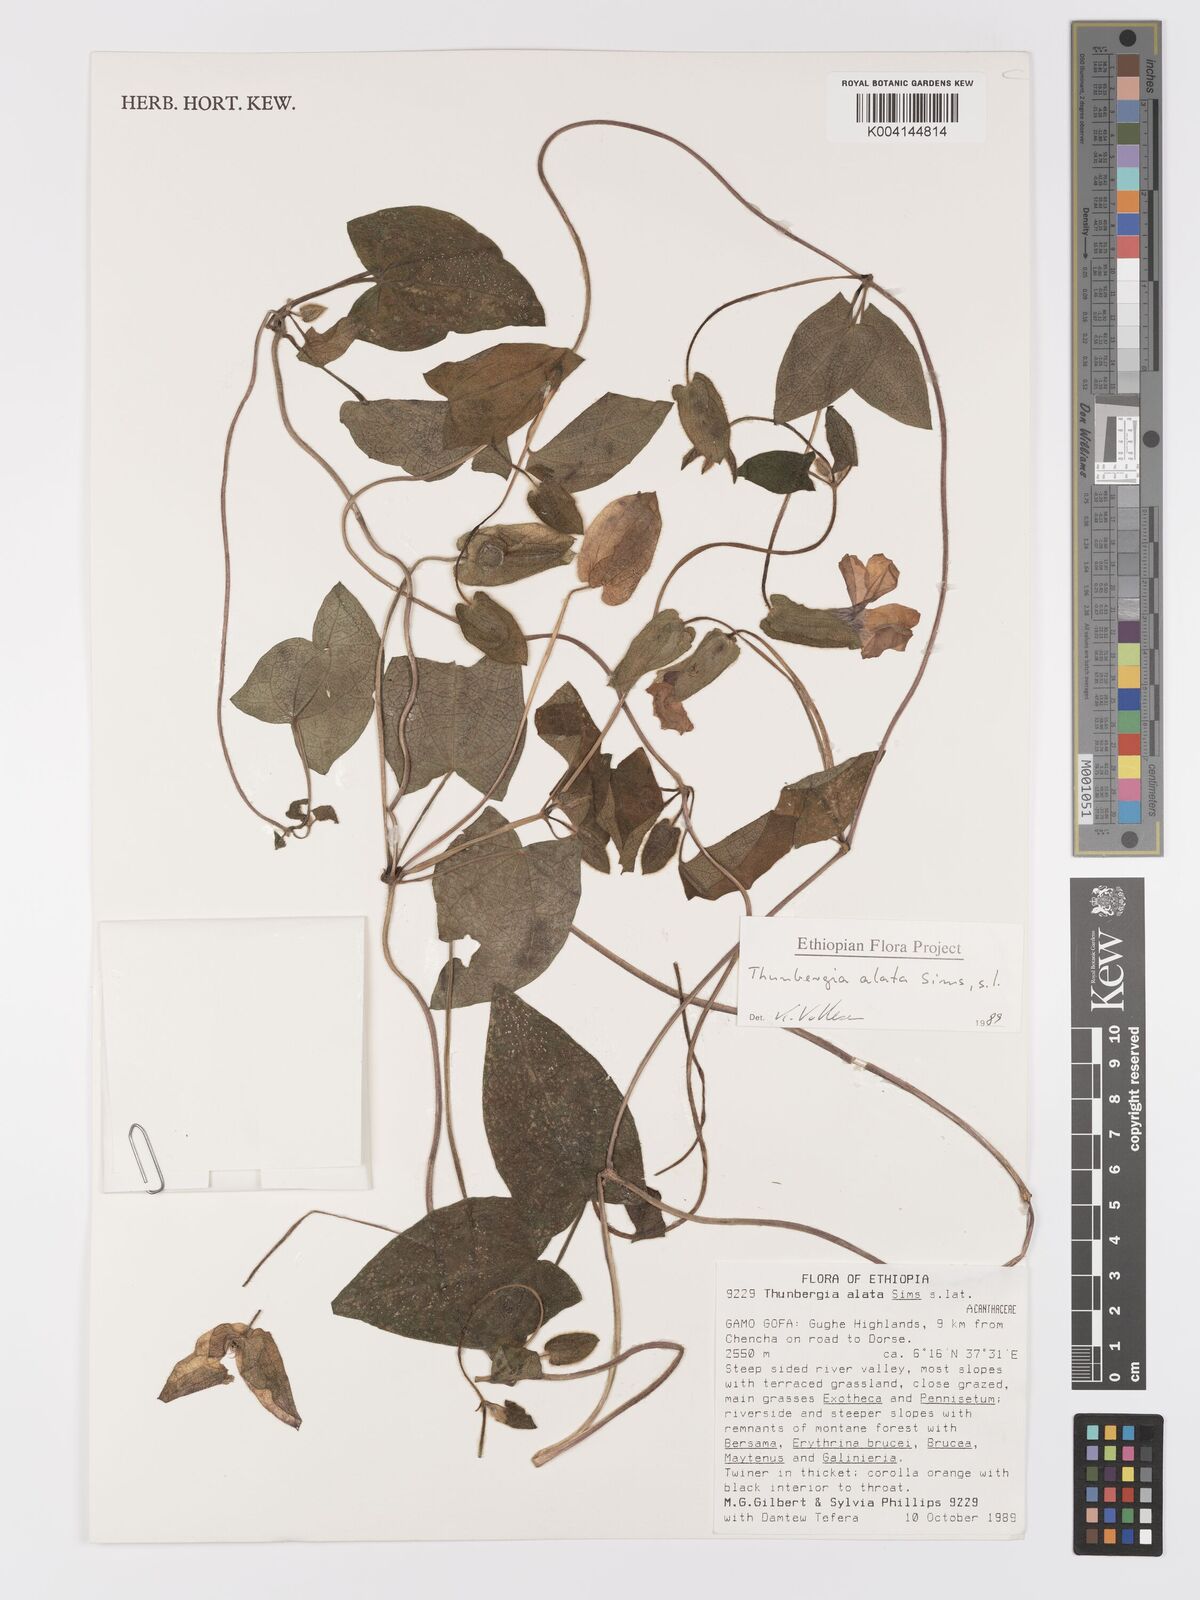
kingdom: Plantae
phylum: Tracheophyta
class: Magnoliopsida
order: Lamiales
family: Acanthaceae
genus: Thunbergia
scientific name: Thunbergia alata
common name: Blackeyed susan vine
